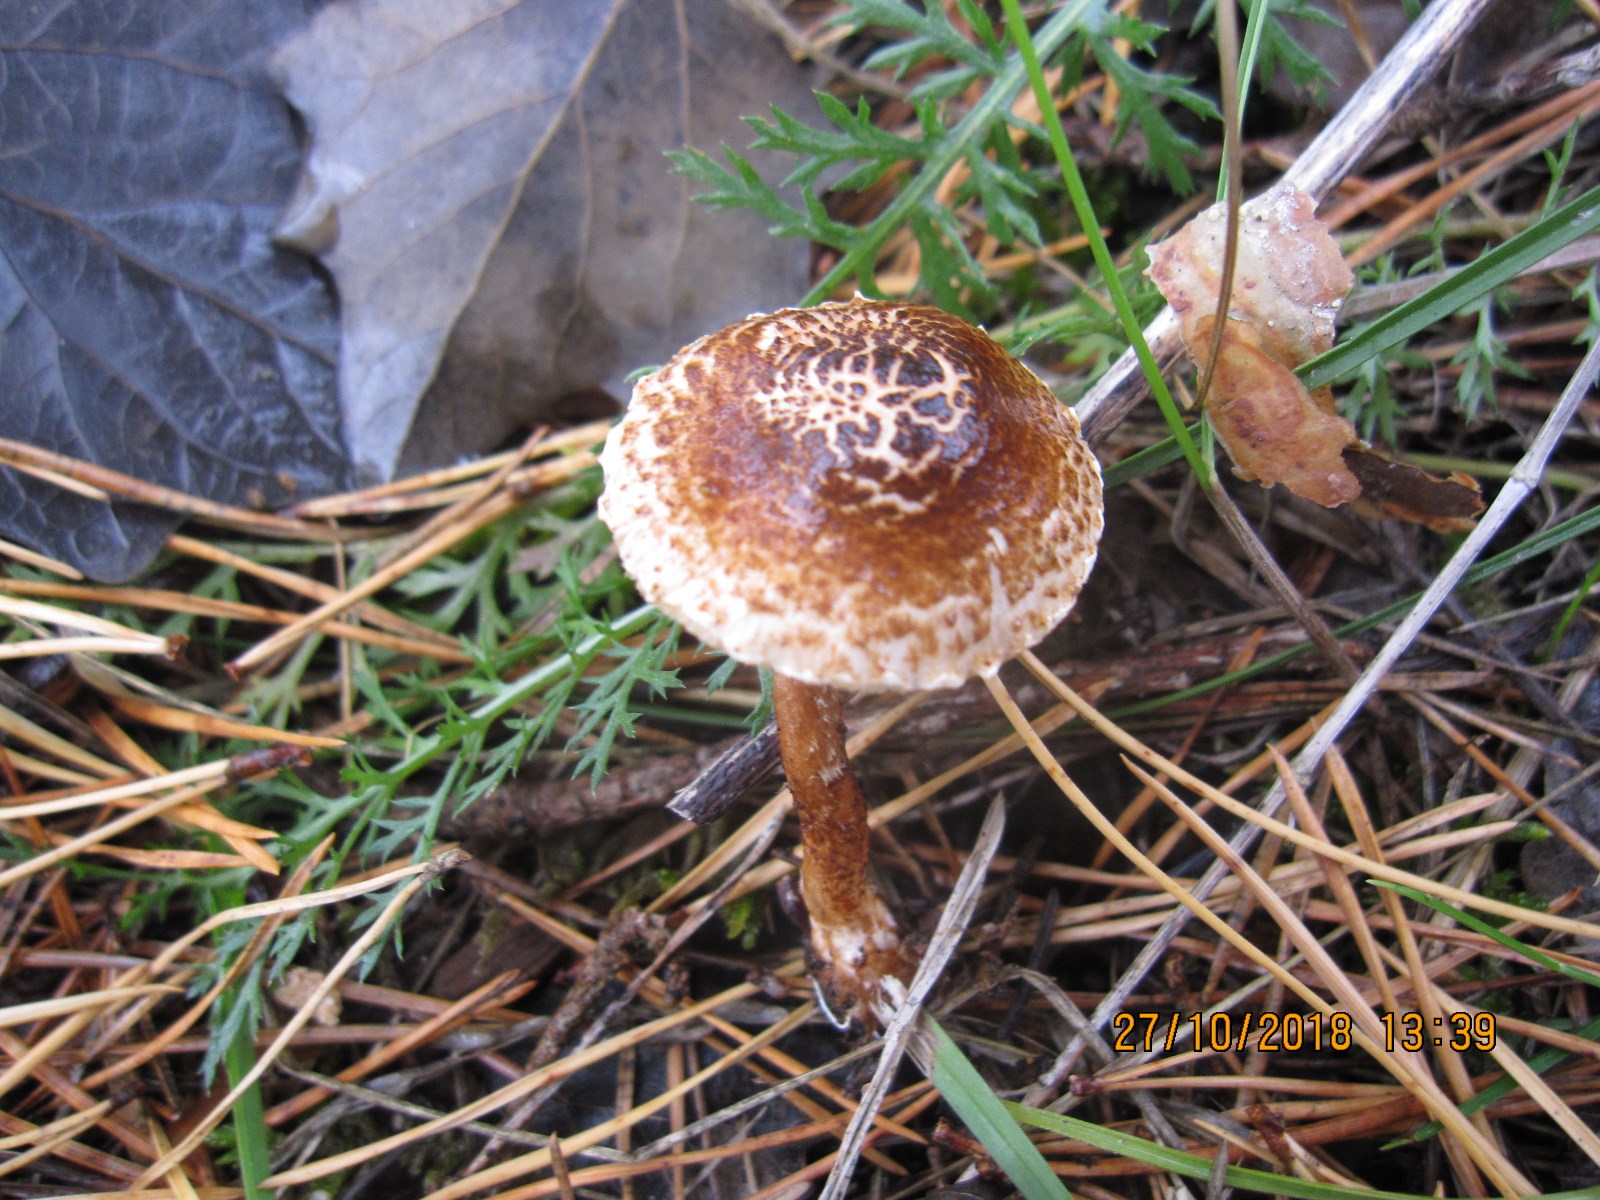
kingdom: Fungi
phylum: Basidiomycota
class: Agaricomycetes
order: Agaricales
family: Agaricaceae
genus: Lepiota
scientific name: Lepiota castanea
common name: kastaniebrun parasolhat
